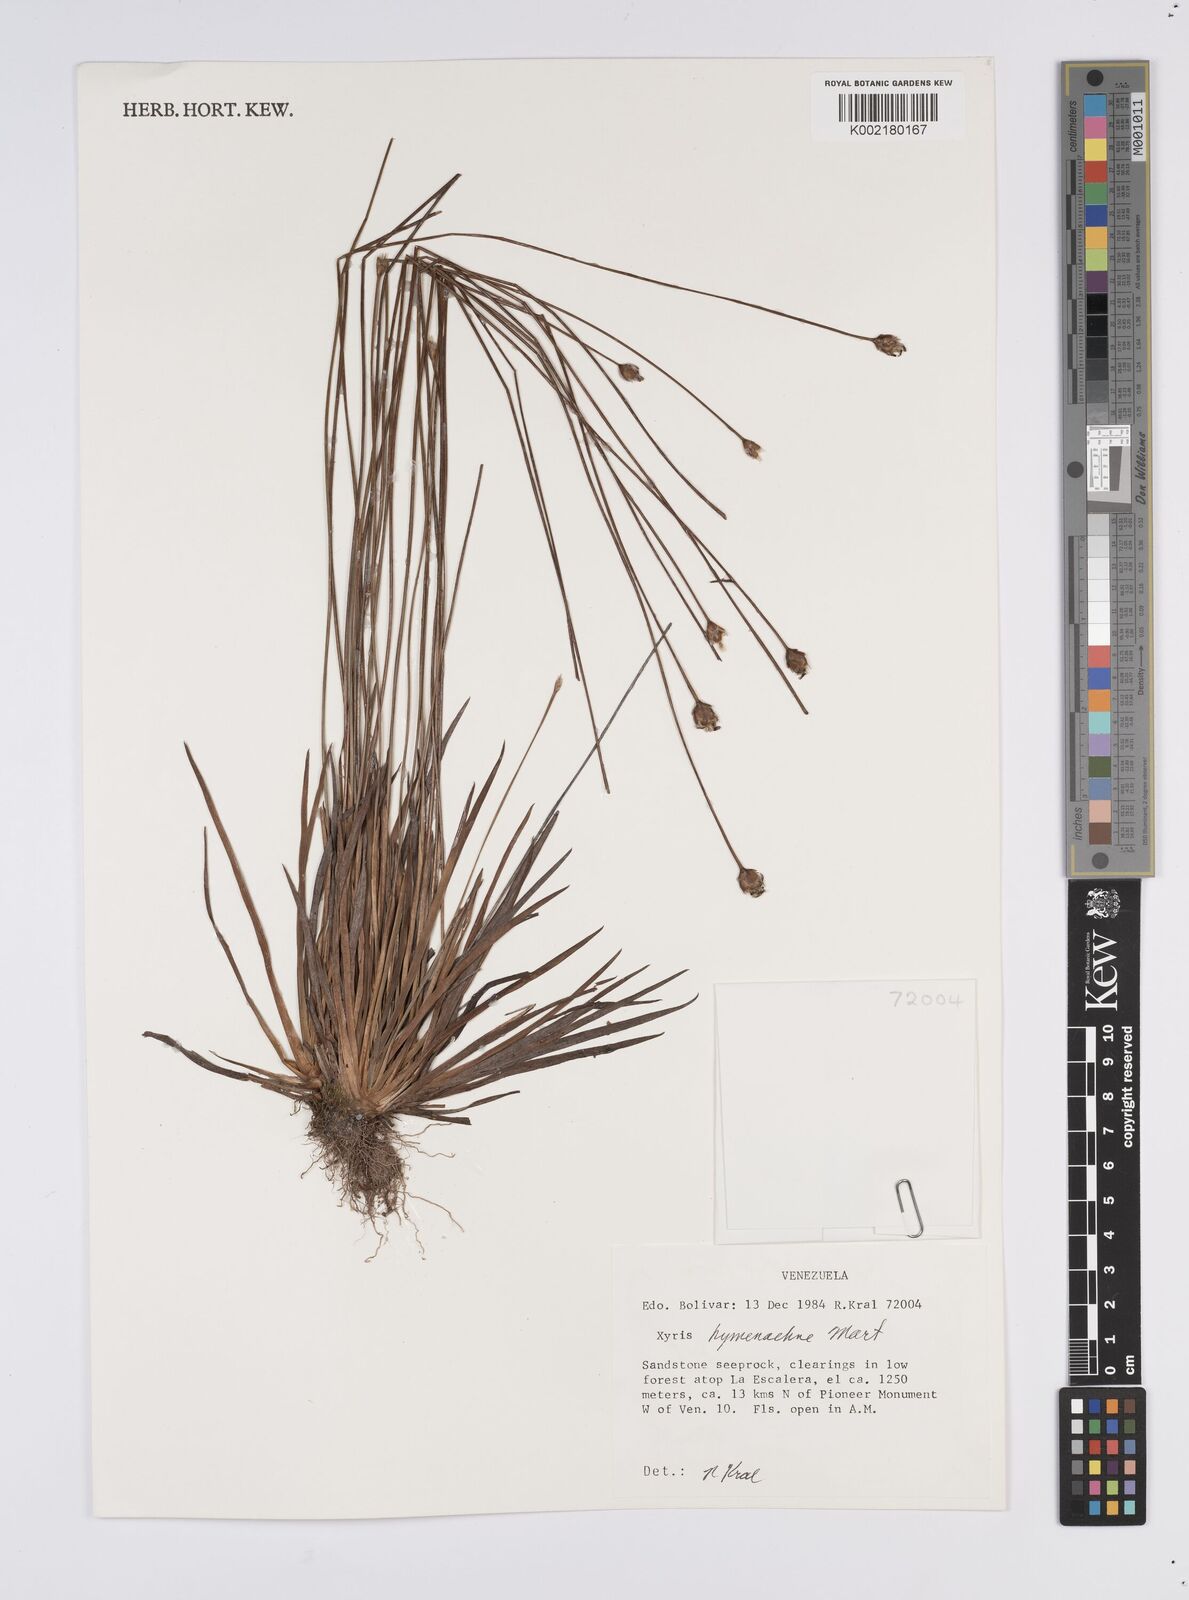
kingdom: Plantae
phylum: Tracheophyta
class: Liliopsida
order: Poales
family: Xyridaceae
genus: Xyris
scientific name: Xyris hymenachne
